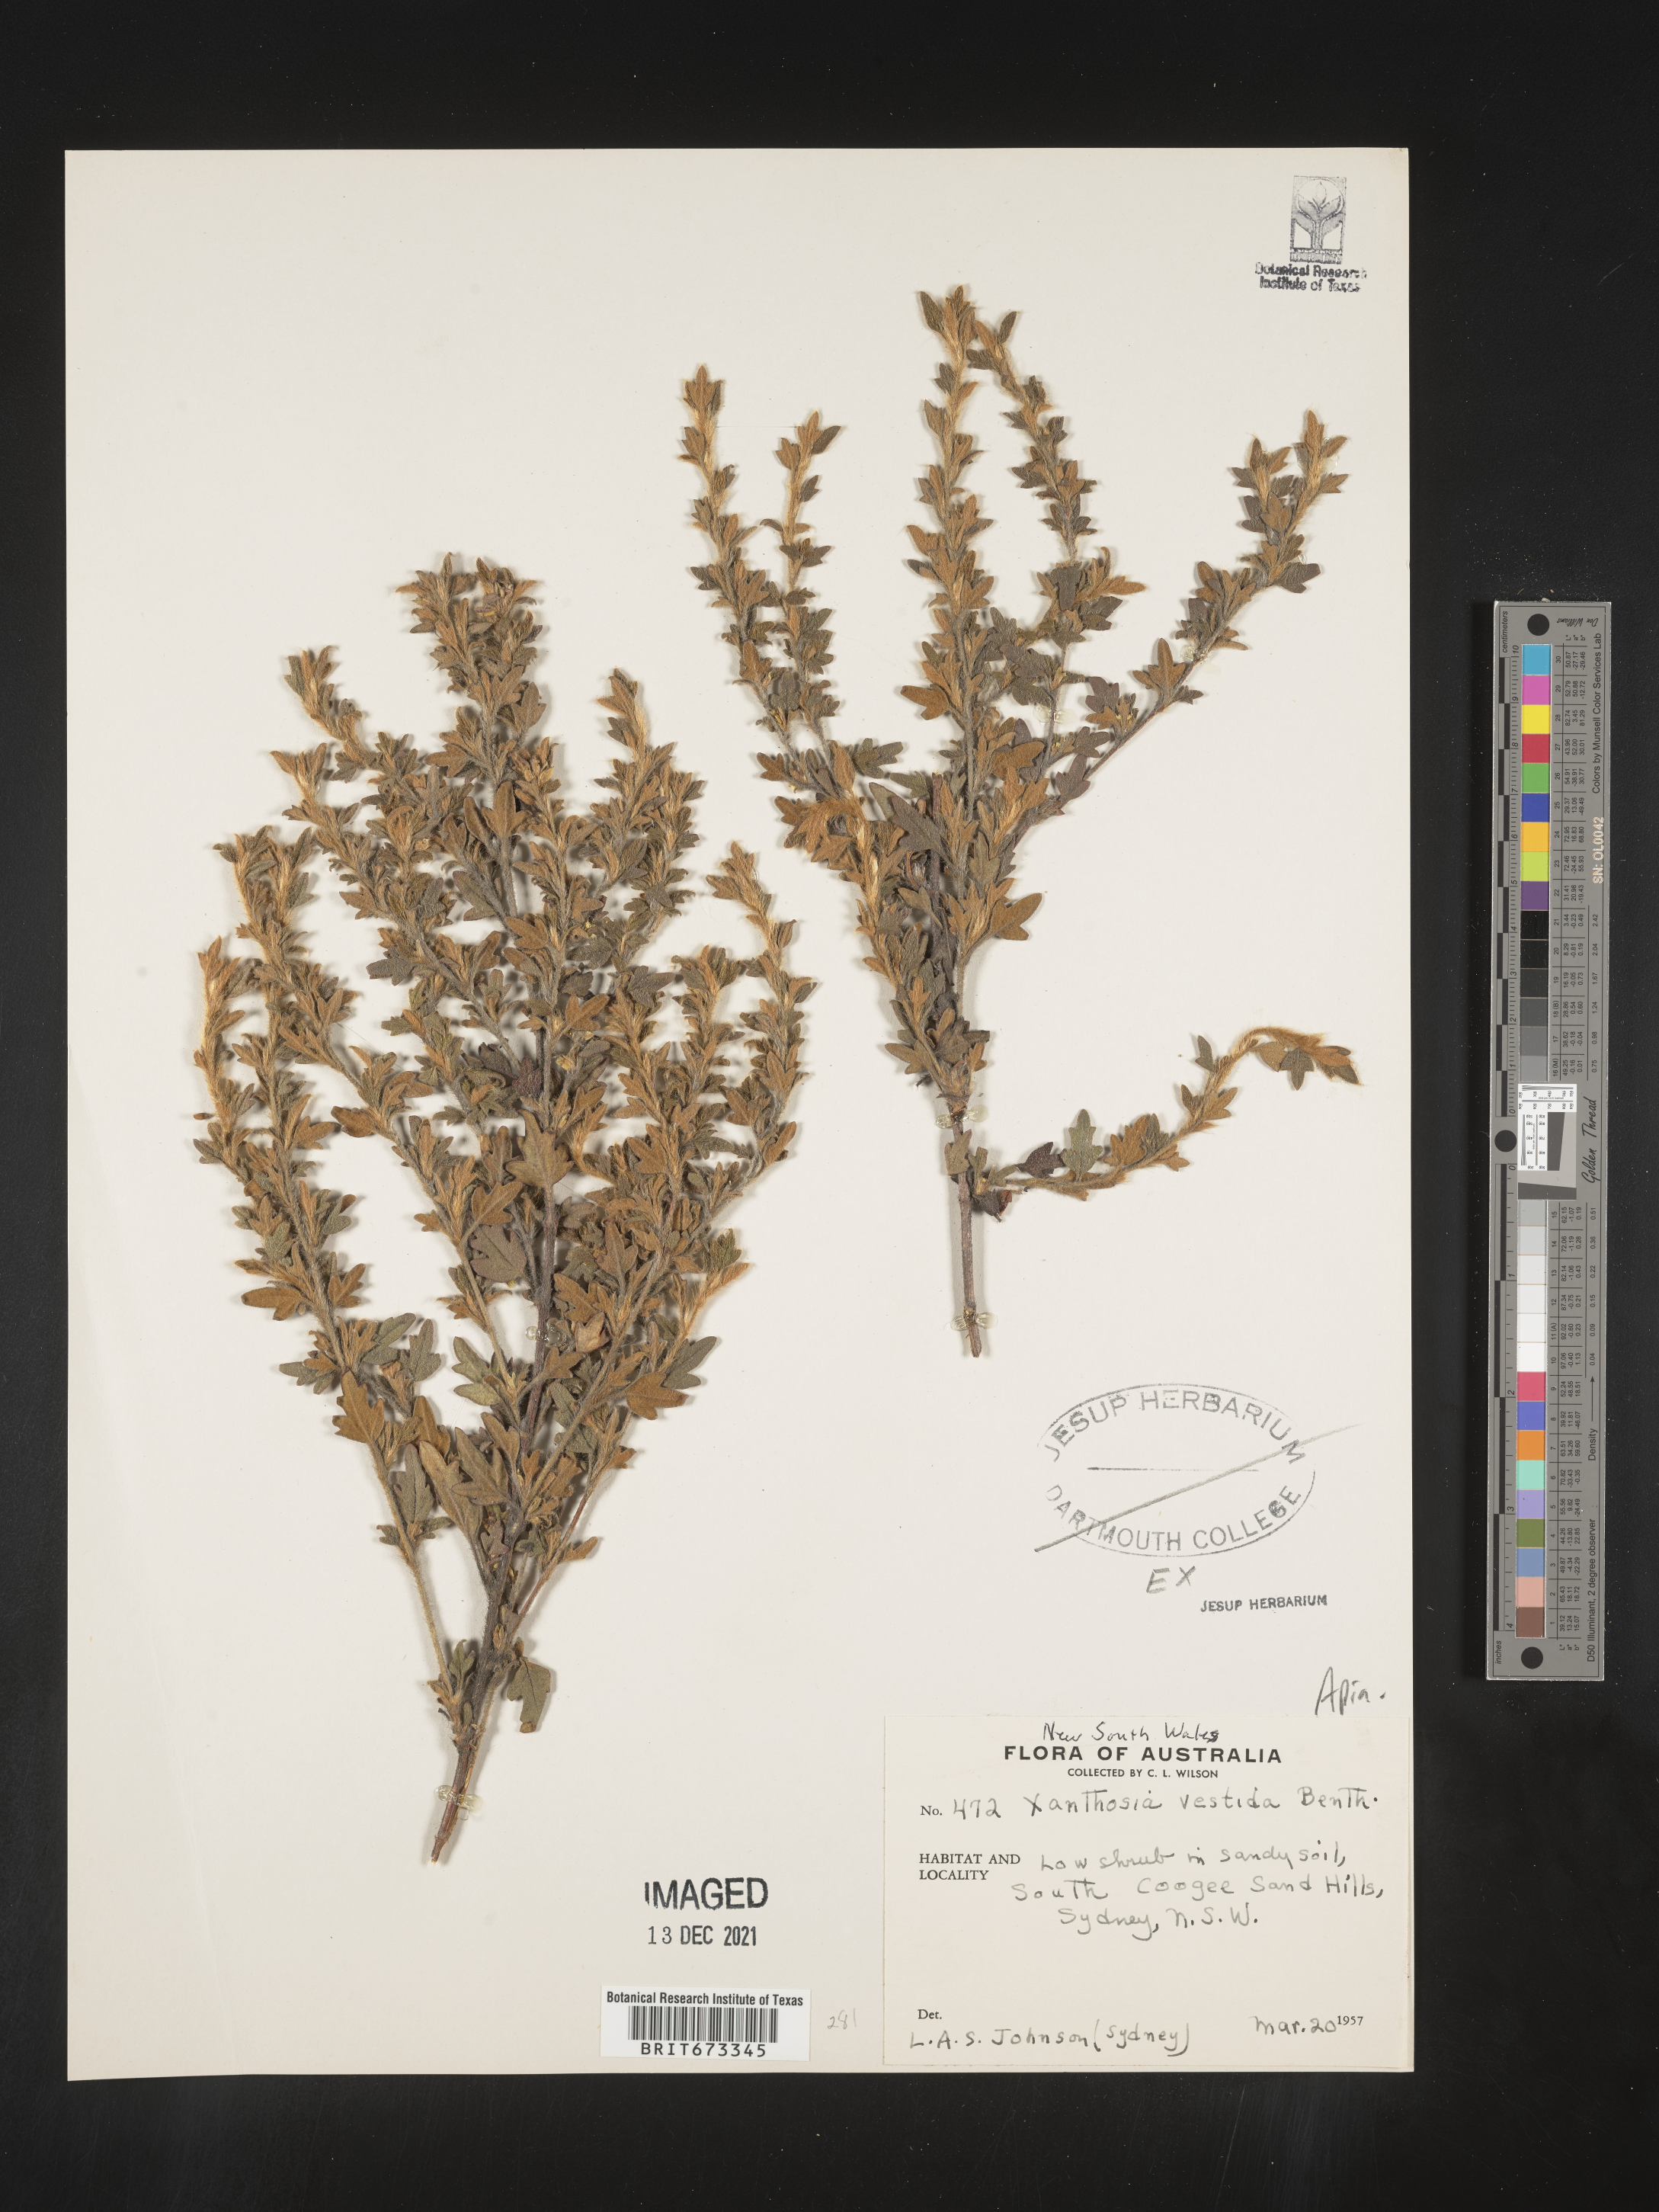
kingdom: Plantae
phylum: Tracheophyta
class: Magnoliopsida
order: Apiales
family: Apiaceae
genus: Xanthosia
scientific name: Xanthosia
